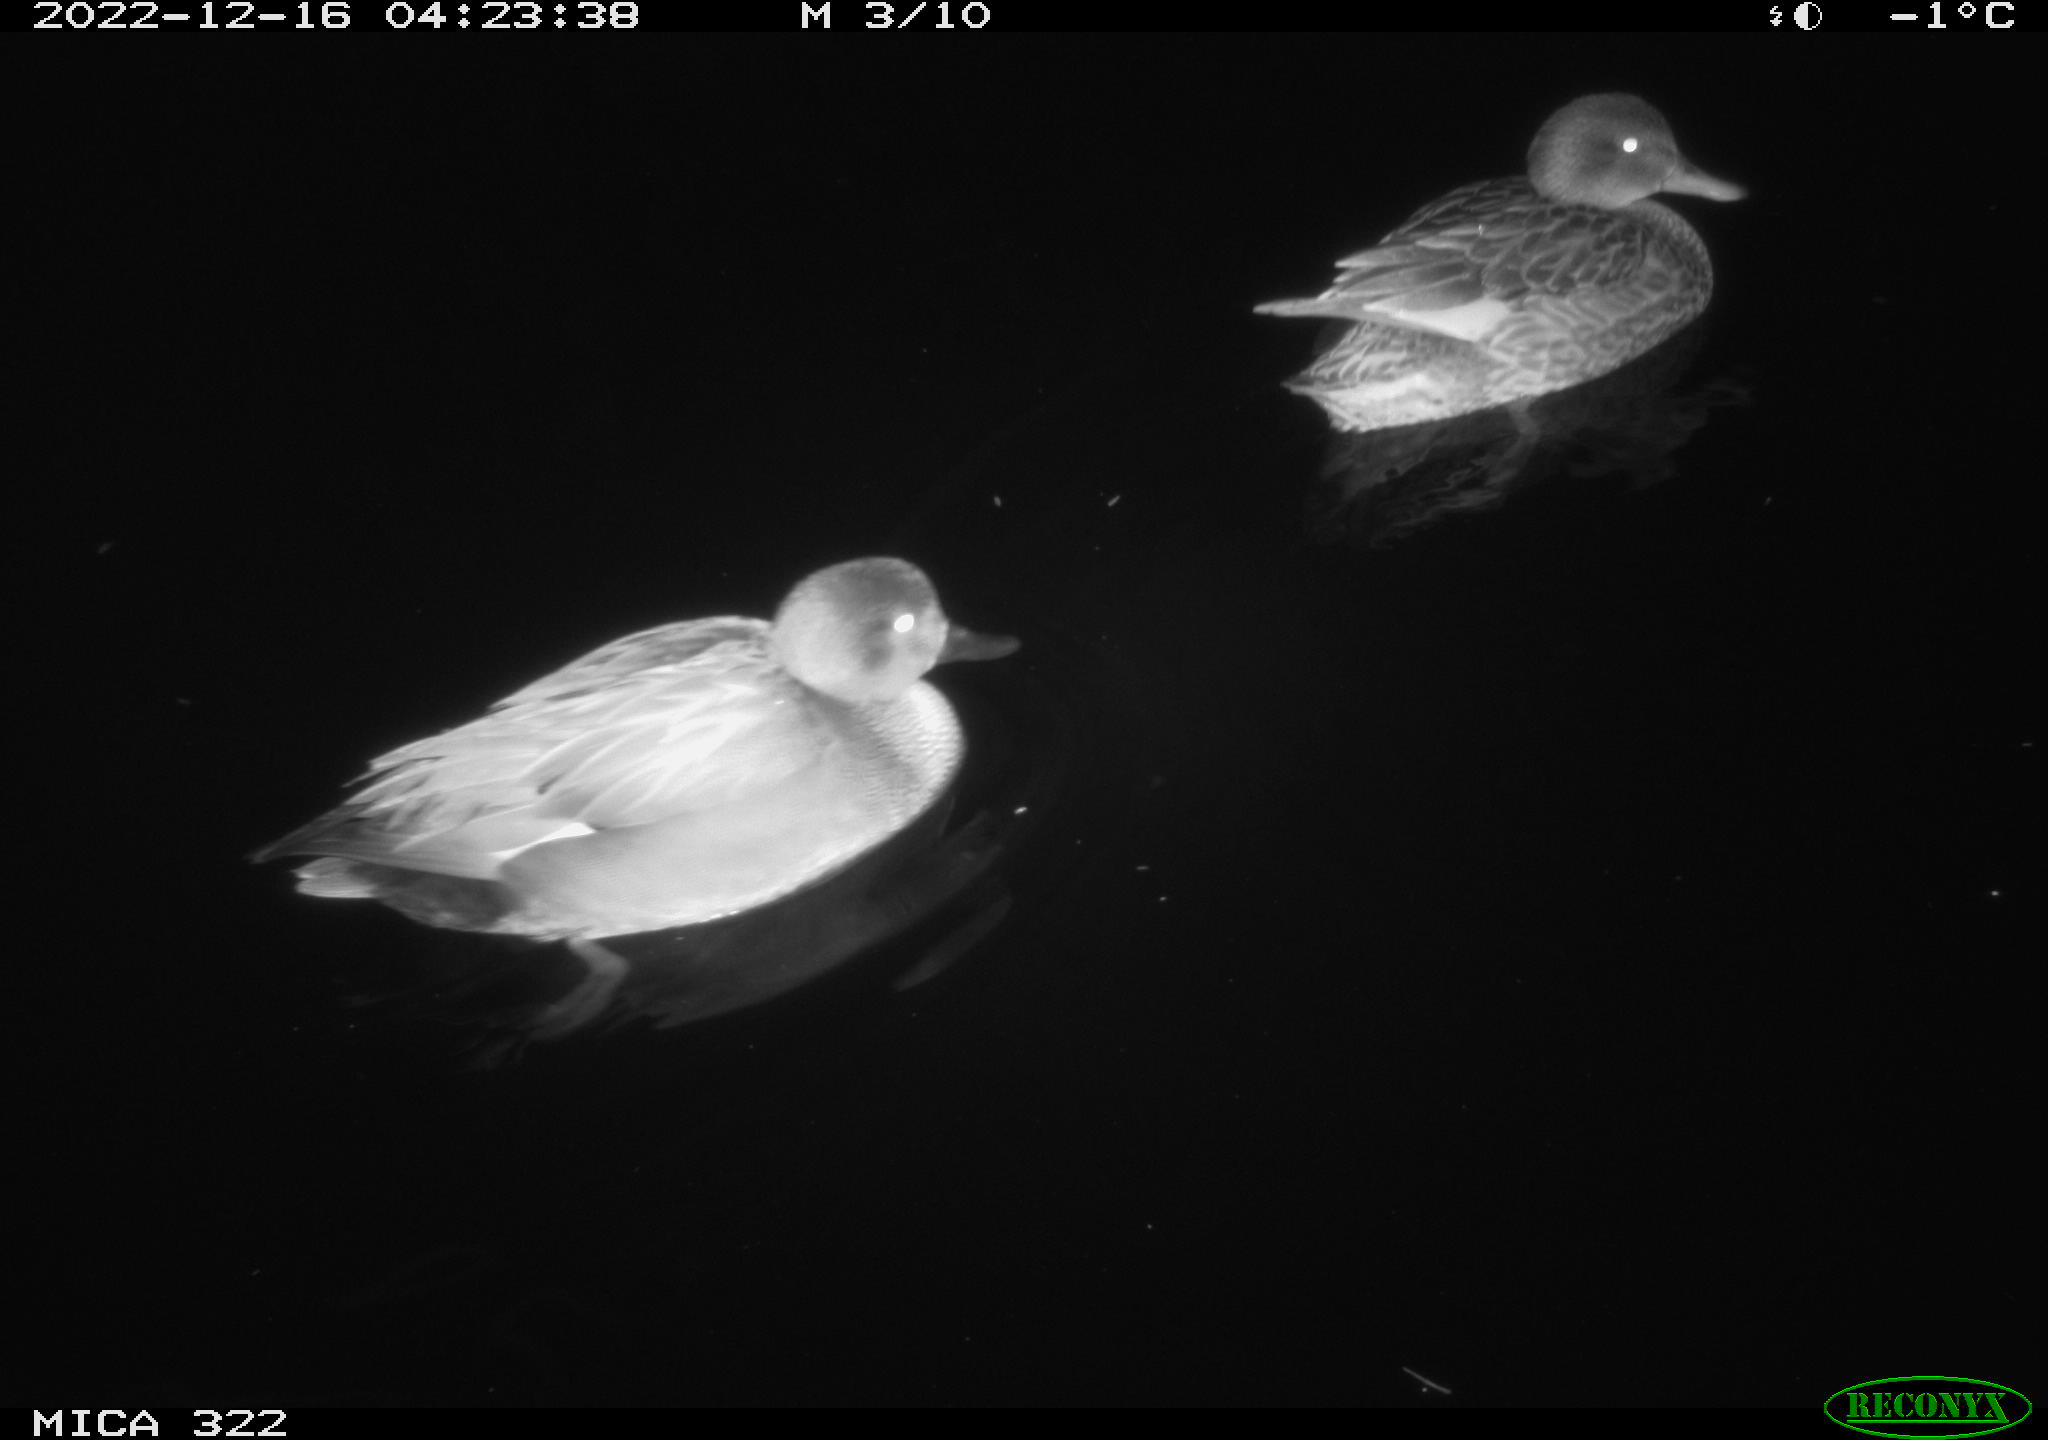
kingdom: Animalia
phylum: Chordata
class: Aves
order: Anseriformes
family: Anatidae
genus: Anas
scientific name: Anas
